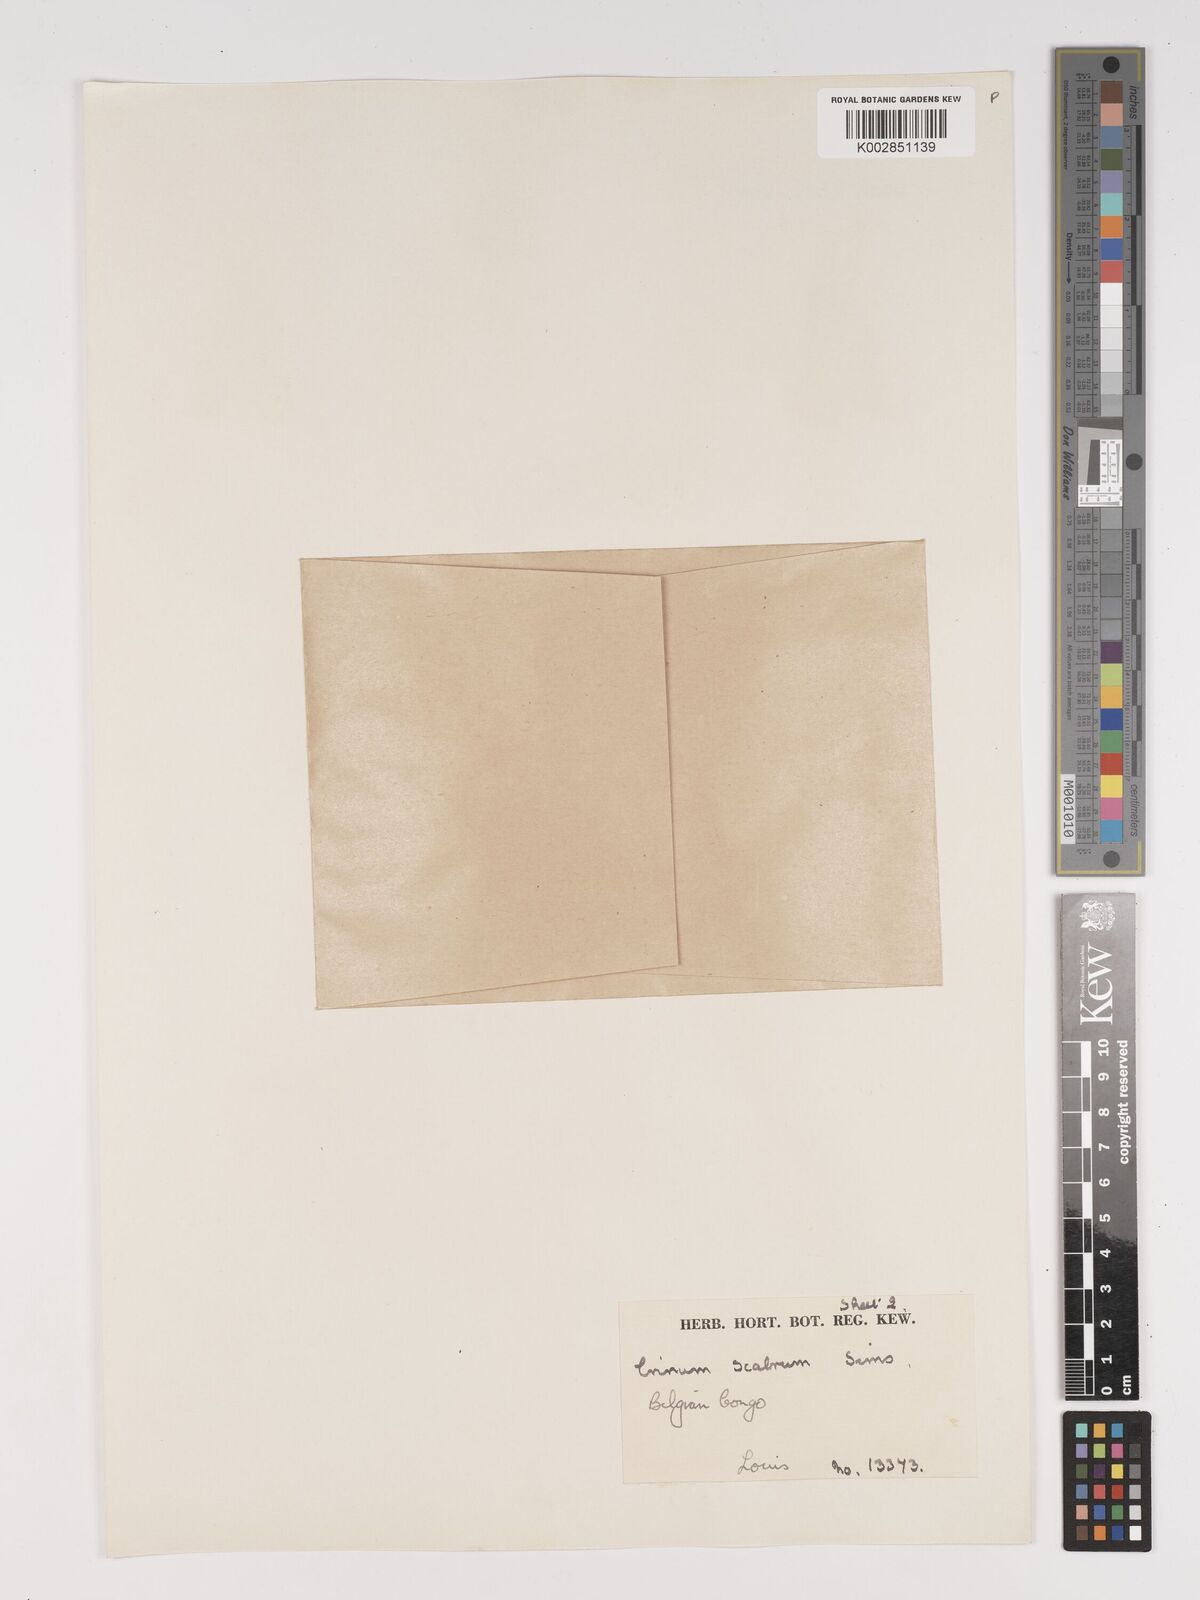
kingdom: Plantae
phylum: Tracheophyta
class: Liliopsida
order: Asparagales
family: Amaryllidaceae
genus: Crinum
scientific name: Crinum jagus
